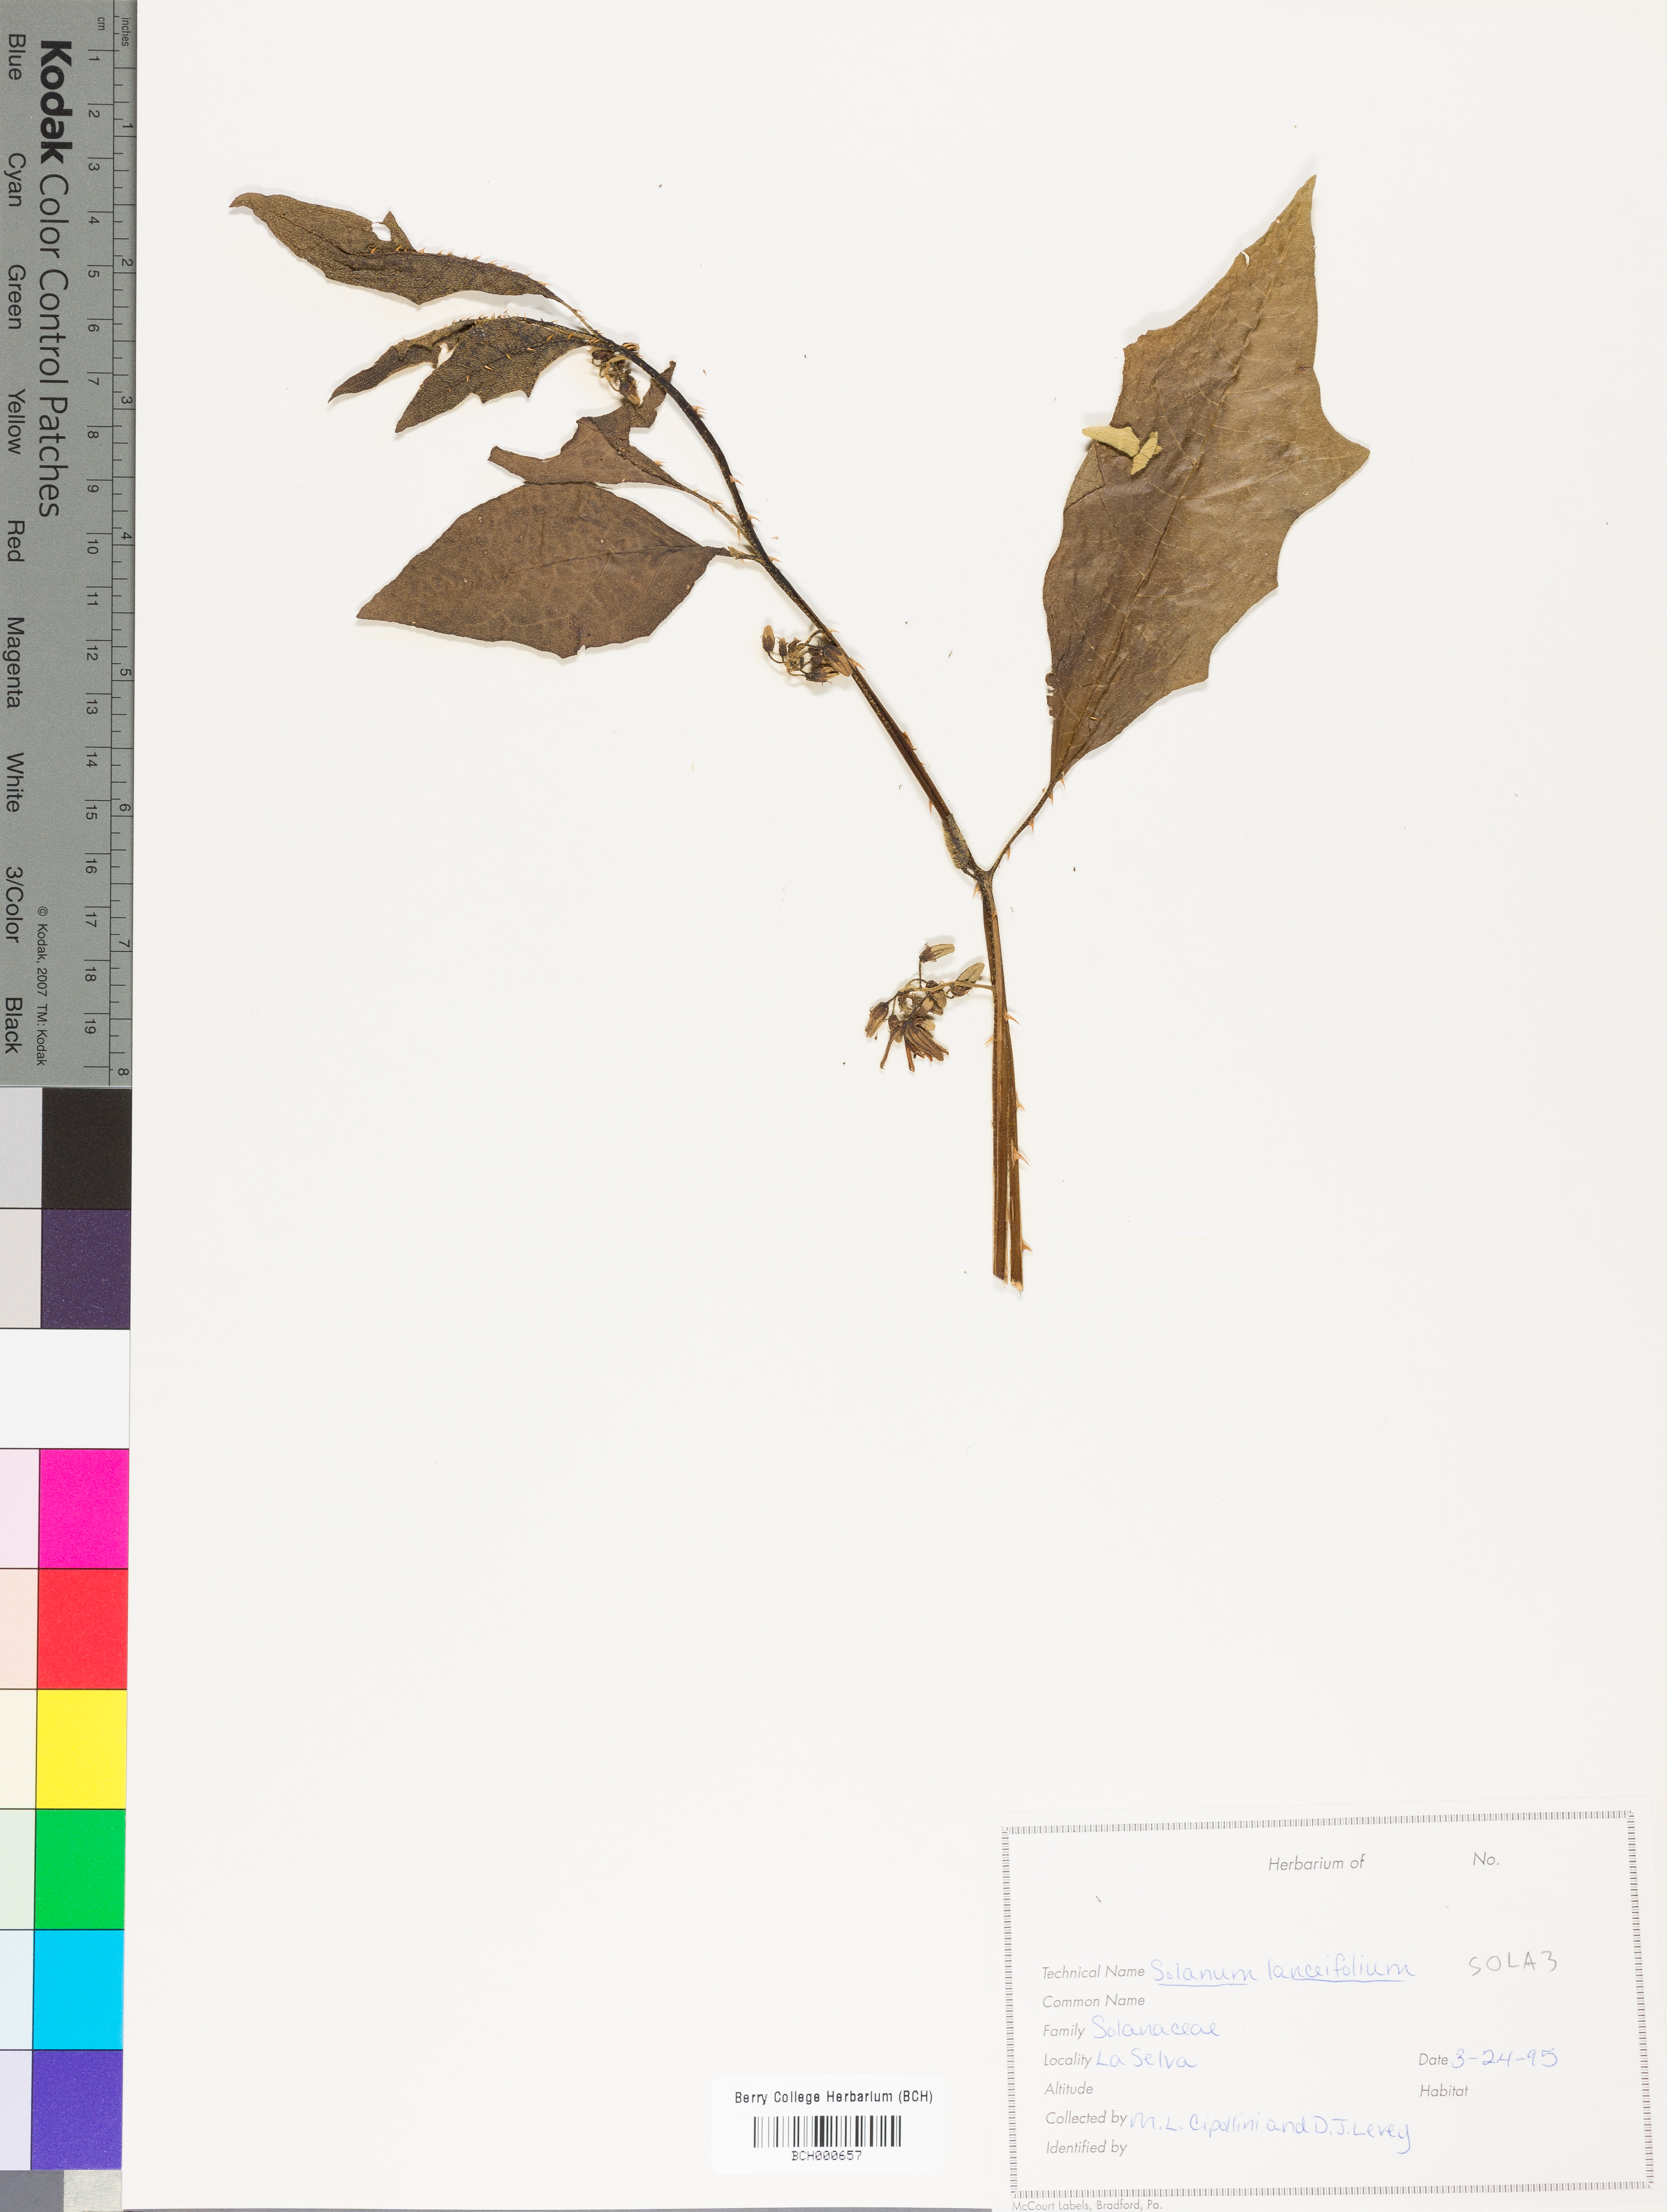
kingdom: Plantae
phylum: Tracheophyta
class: Magnoliopsida
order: Solanales
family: Solanaceae
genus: Solanum
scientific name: Solanum lanceifolium
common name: Lanceleaf nightshade
